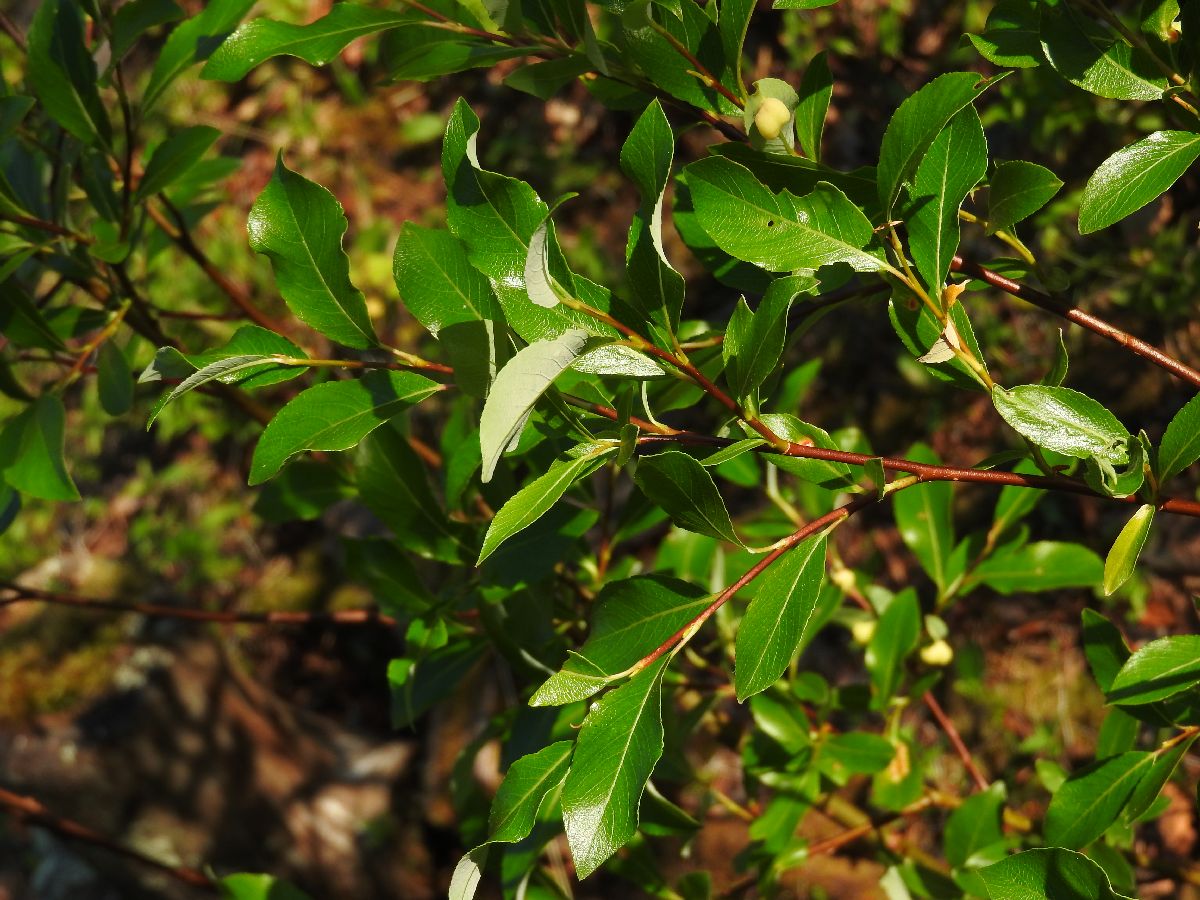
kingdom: Plantae
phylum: Tracheophyta
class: Magnoliopsida
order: Malpighiales
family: Salicaceae
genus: Salix
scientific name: Salix phylicifolia
